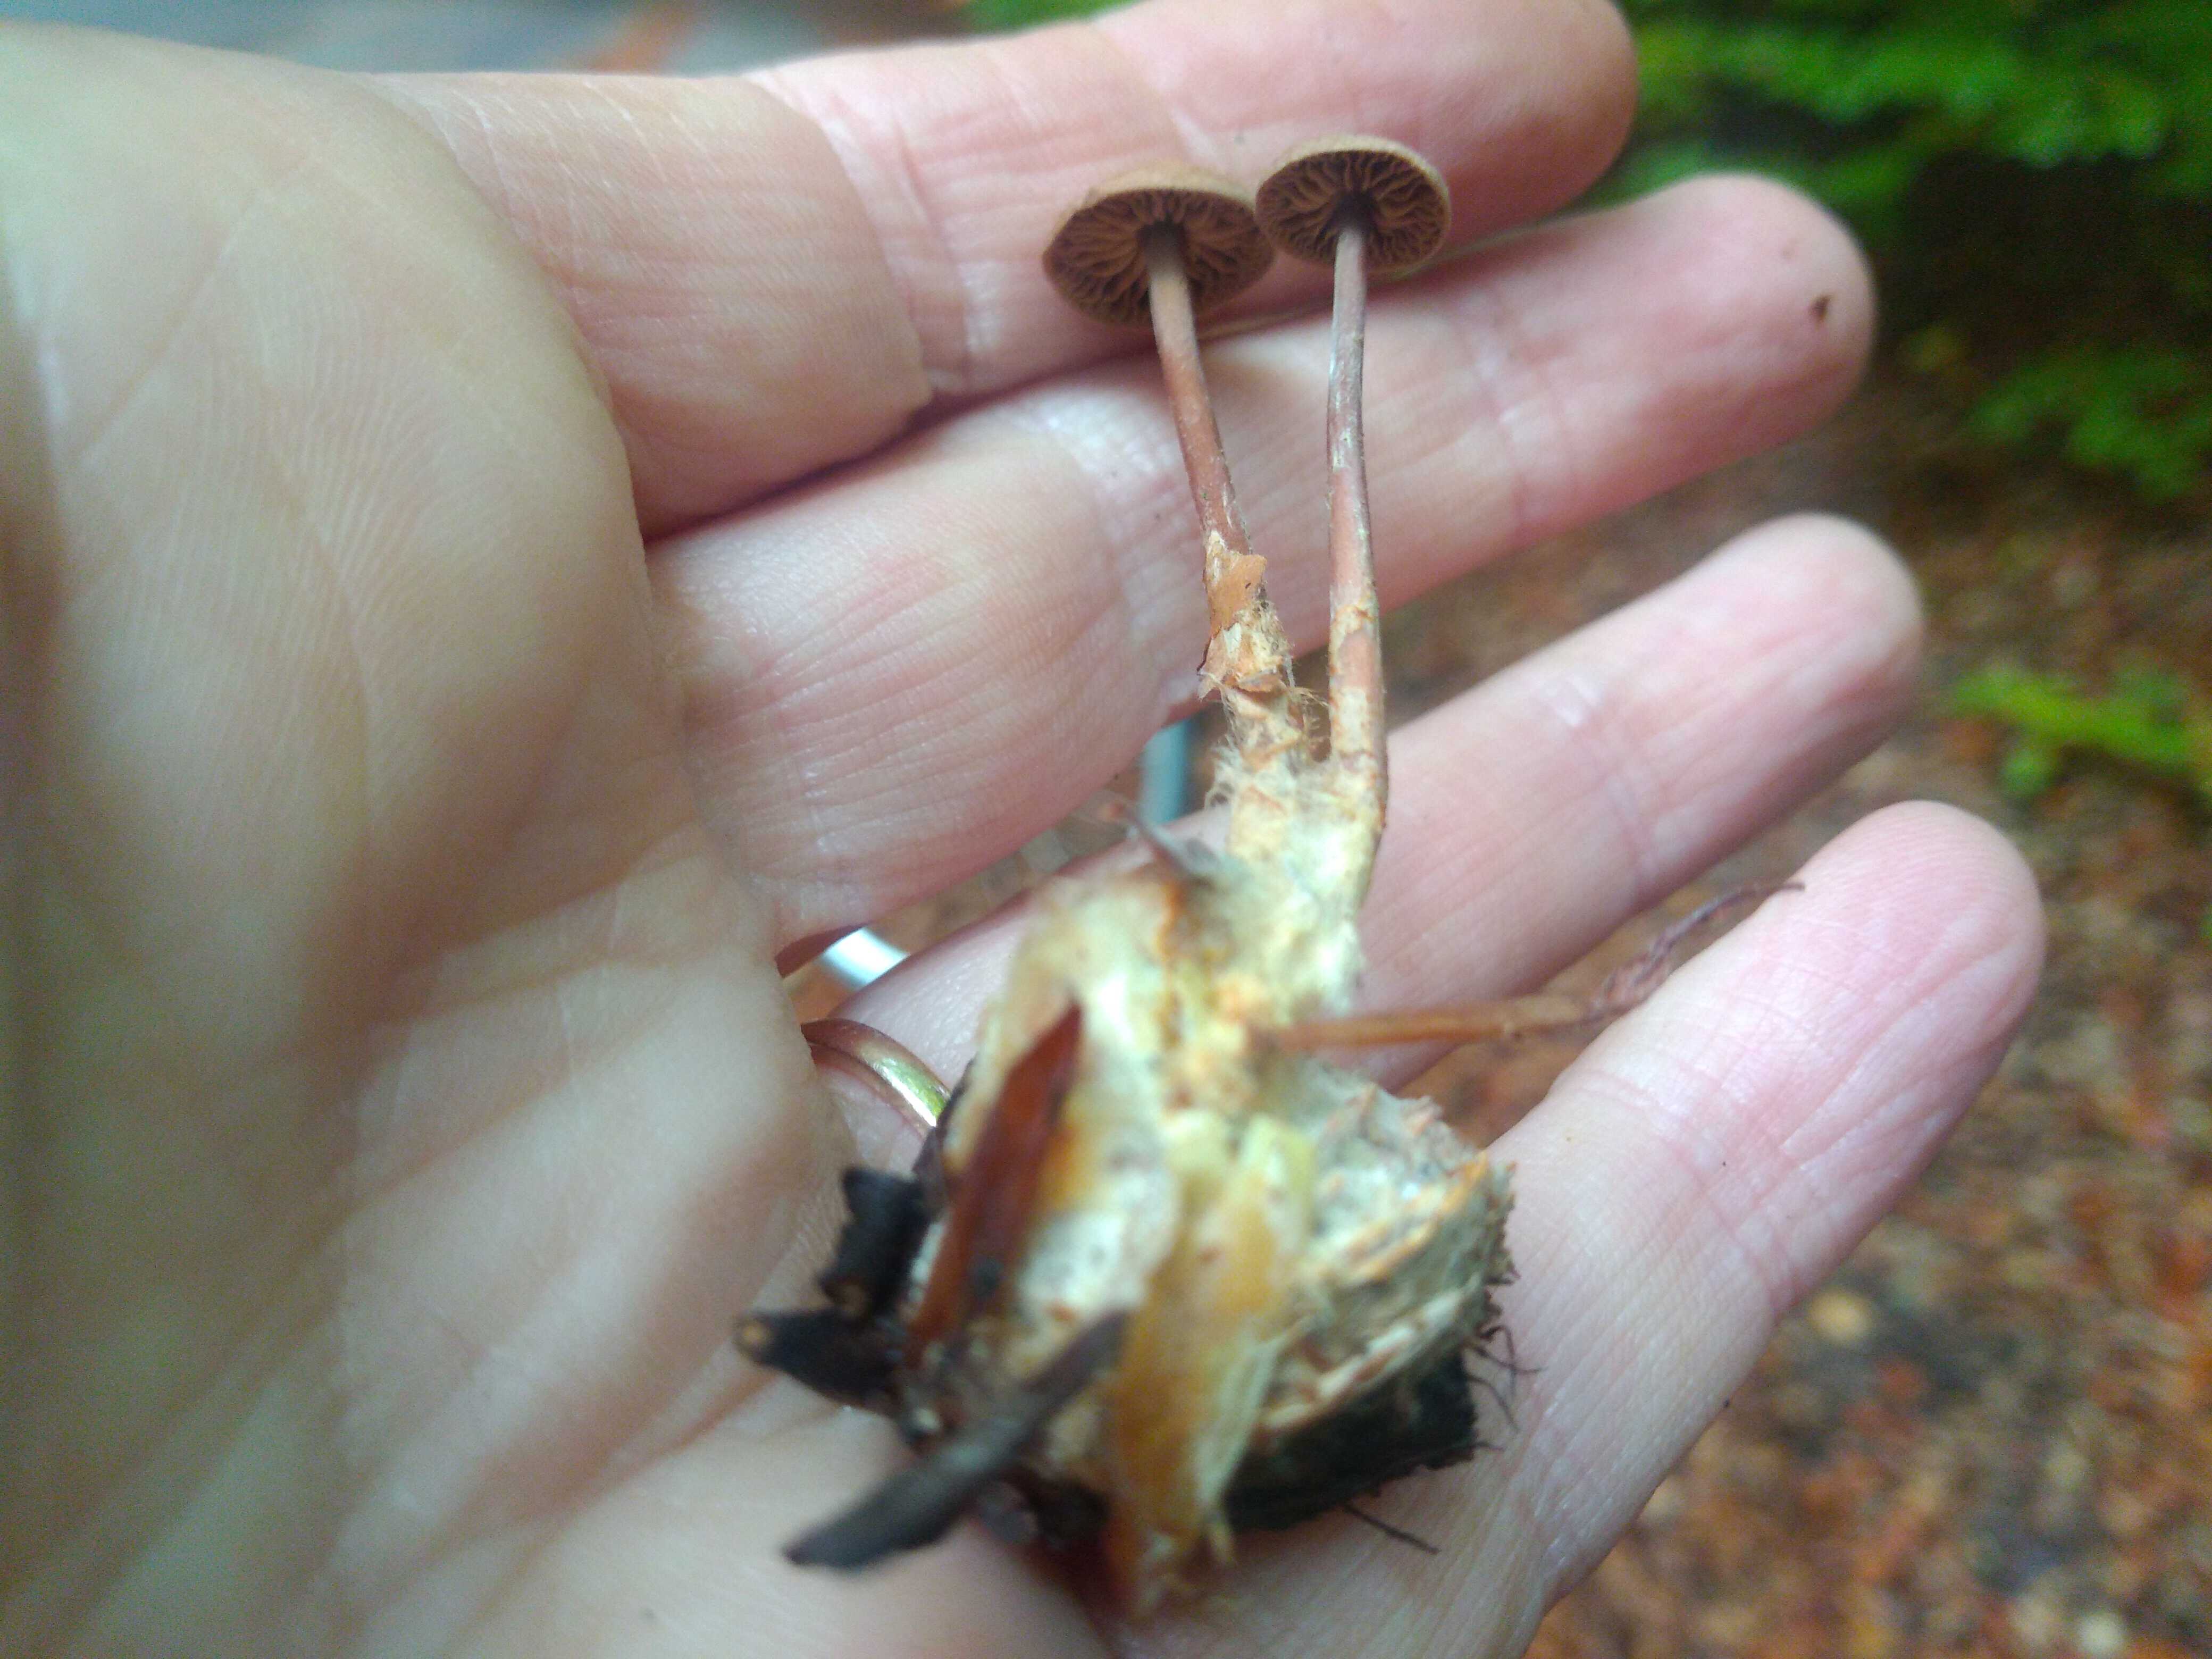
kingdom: Fungi
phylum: Basidiomycota
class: Agaricomycetes
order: Agaricales
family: Omphalotaceae
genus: Gymnopus
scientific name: Gymnopus fagiphilus
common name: bøgeløv-fladhat
